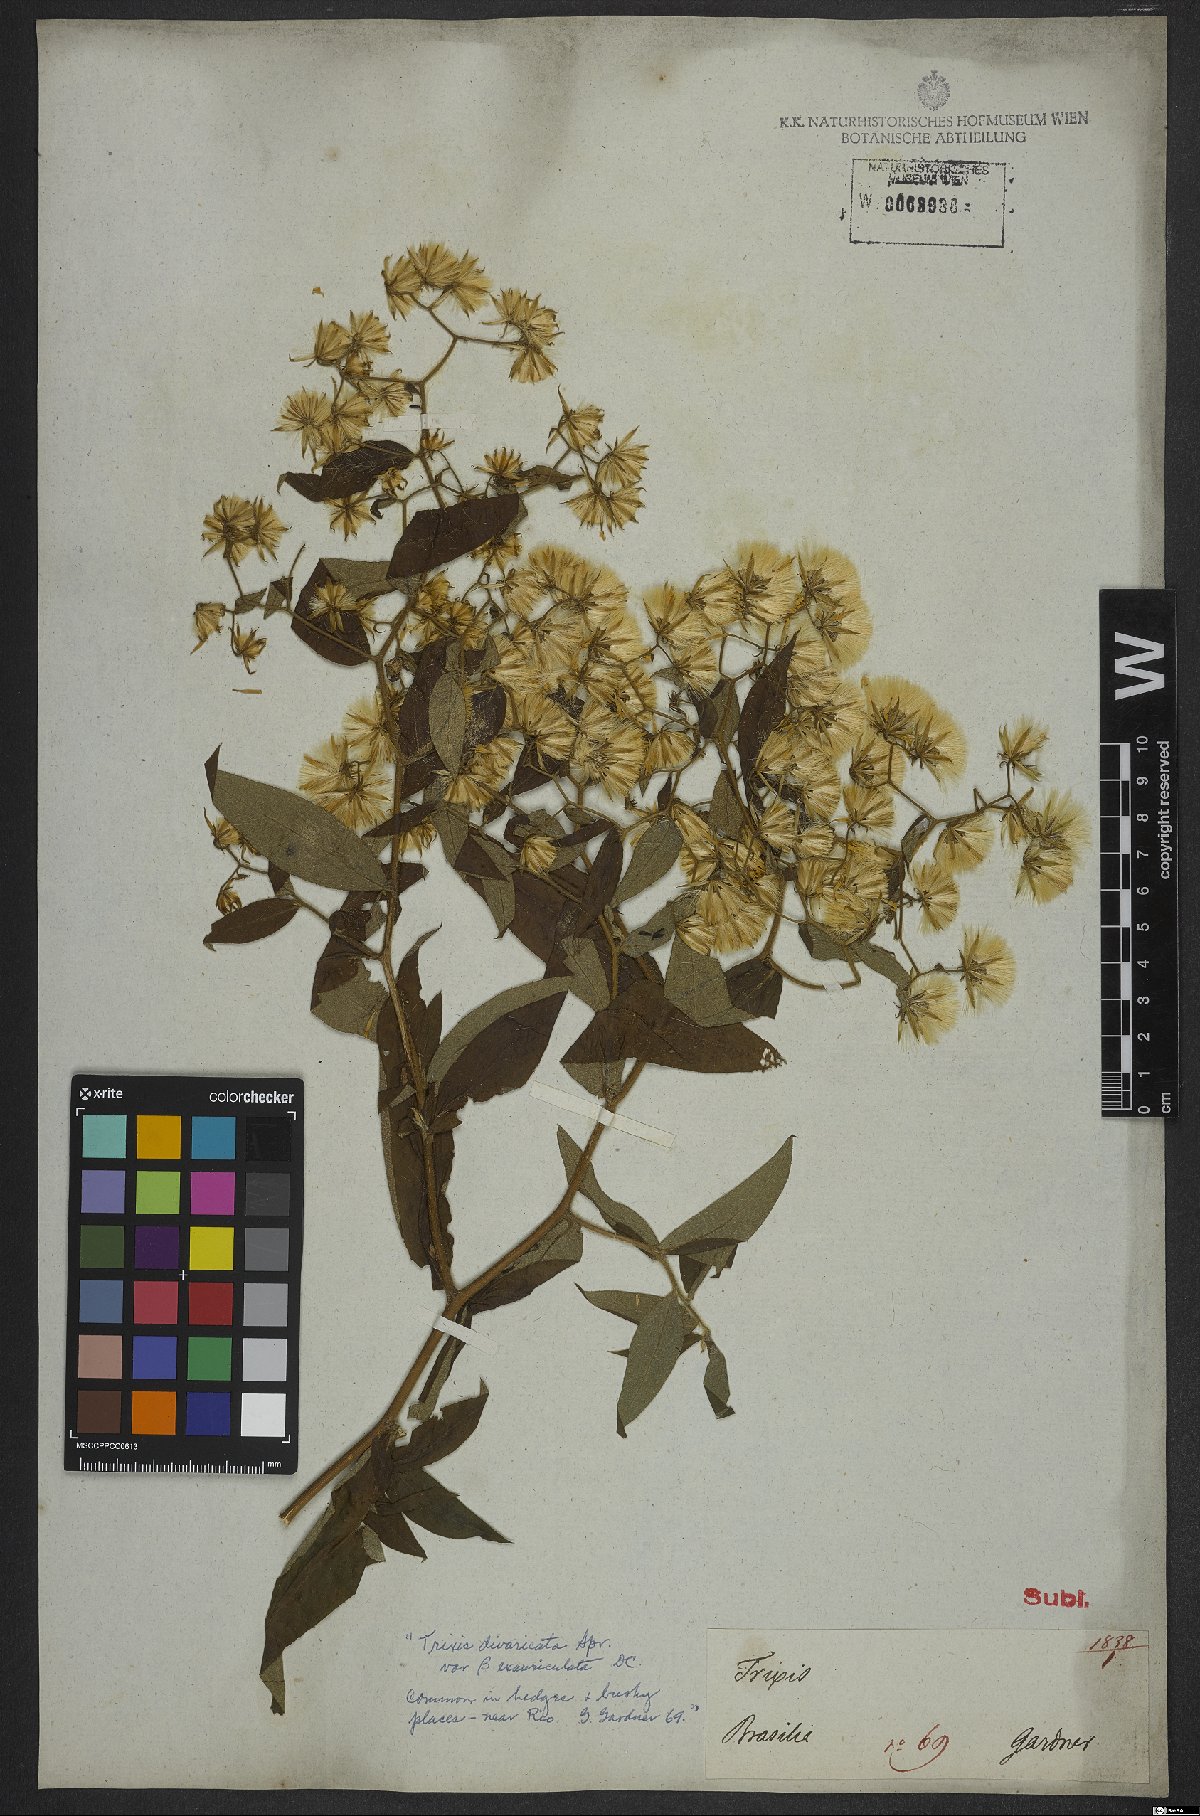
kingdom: Plantae
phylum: Tracheophyta
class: Magnoliopsida
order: Asterales
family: Asteraceae
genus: Trixis
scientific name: Trixis divaricata
